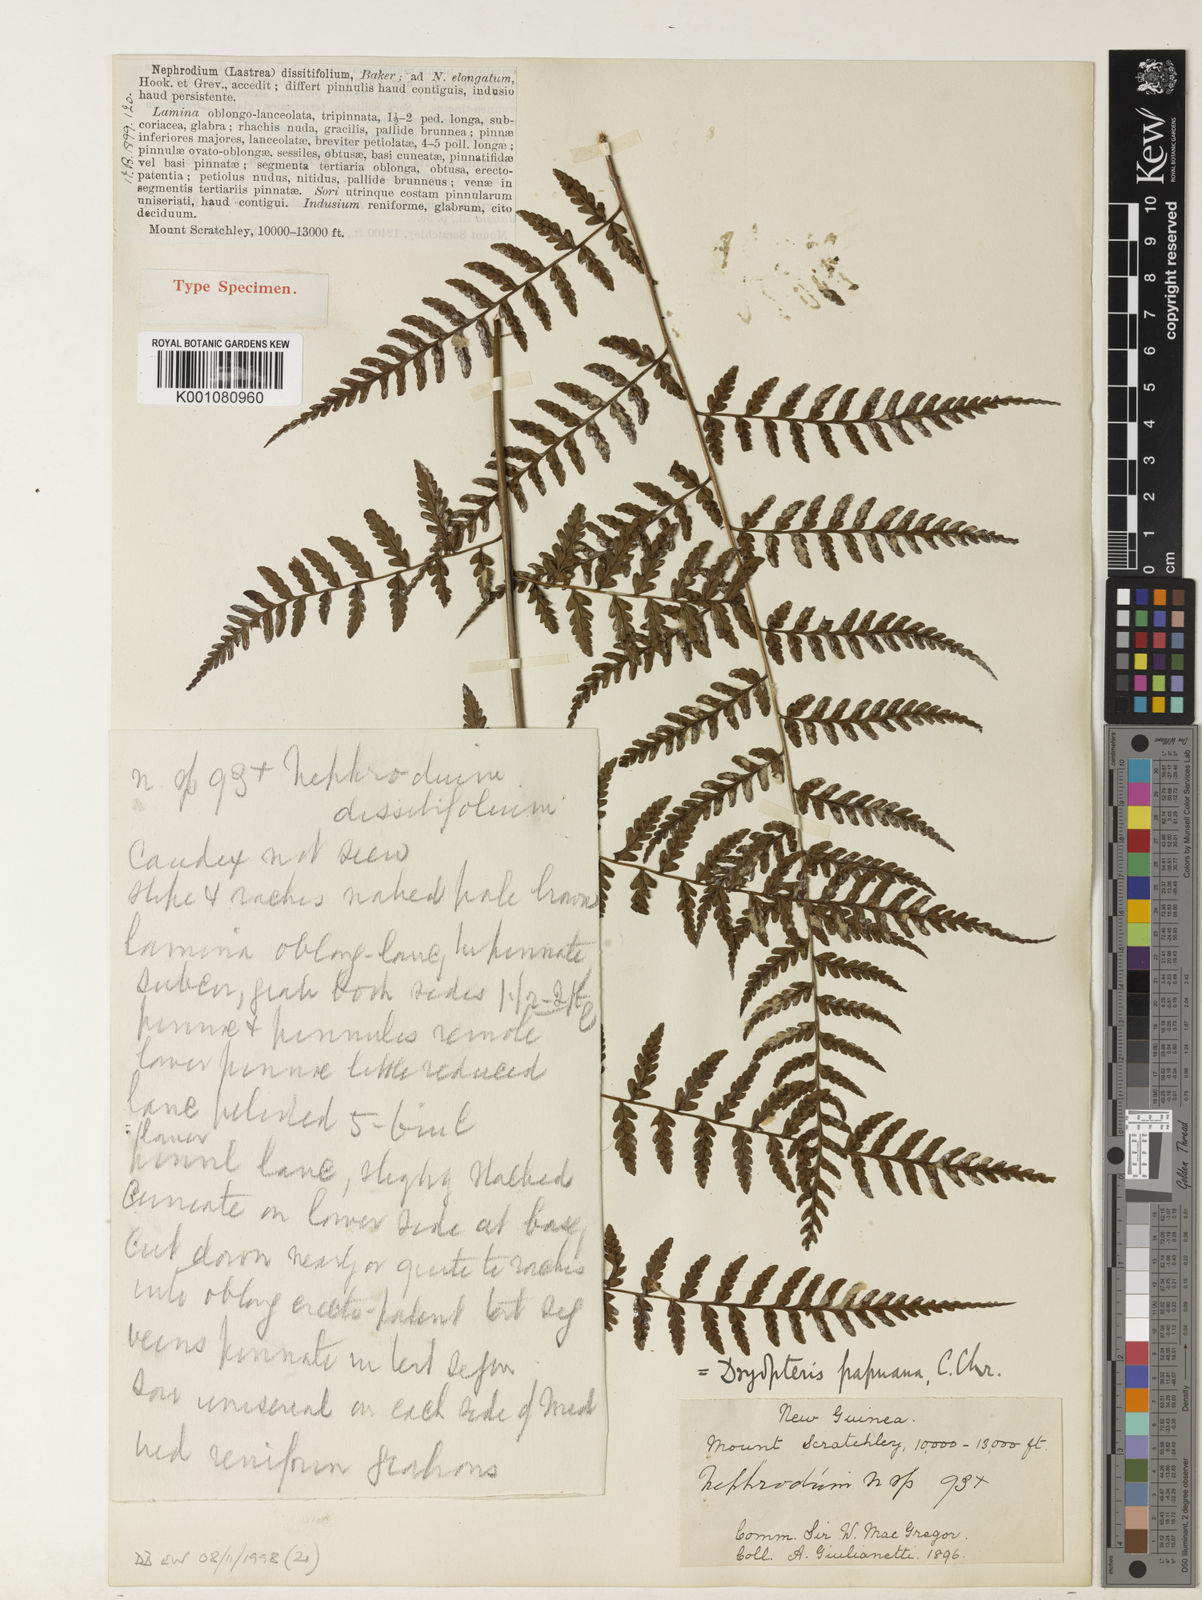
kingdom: Plantae
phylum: Tracheophyta
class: Polypodiopsida
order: Polypodiales
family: Dryopteridaceae
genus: Dryopteris
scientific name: Dryopteris papuana
